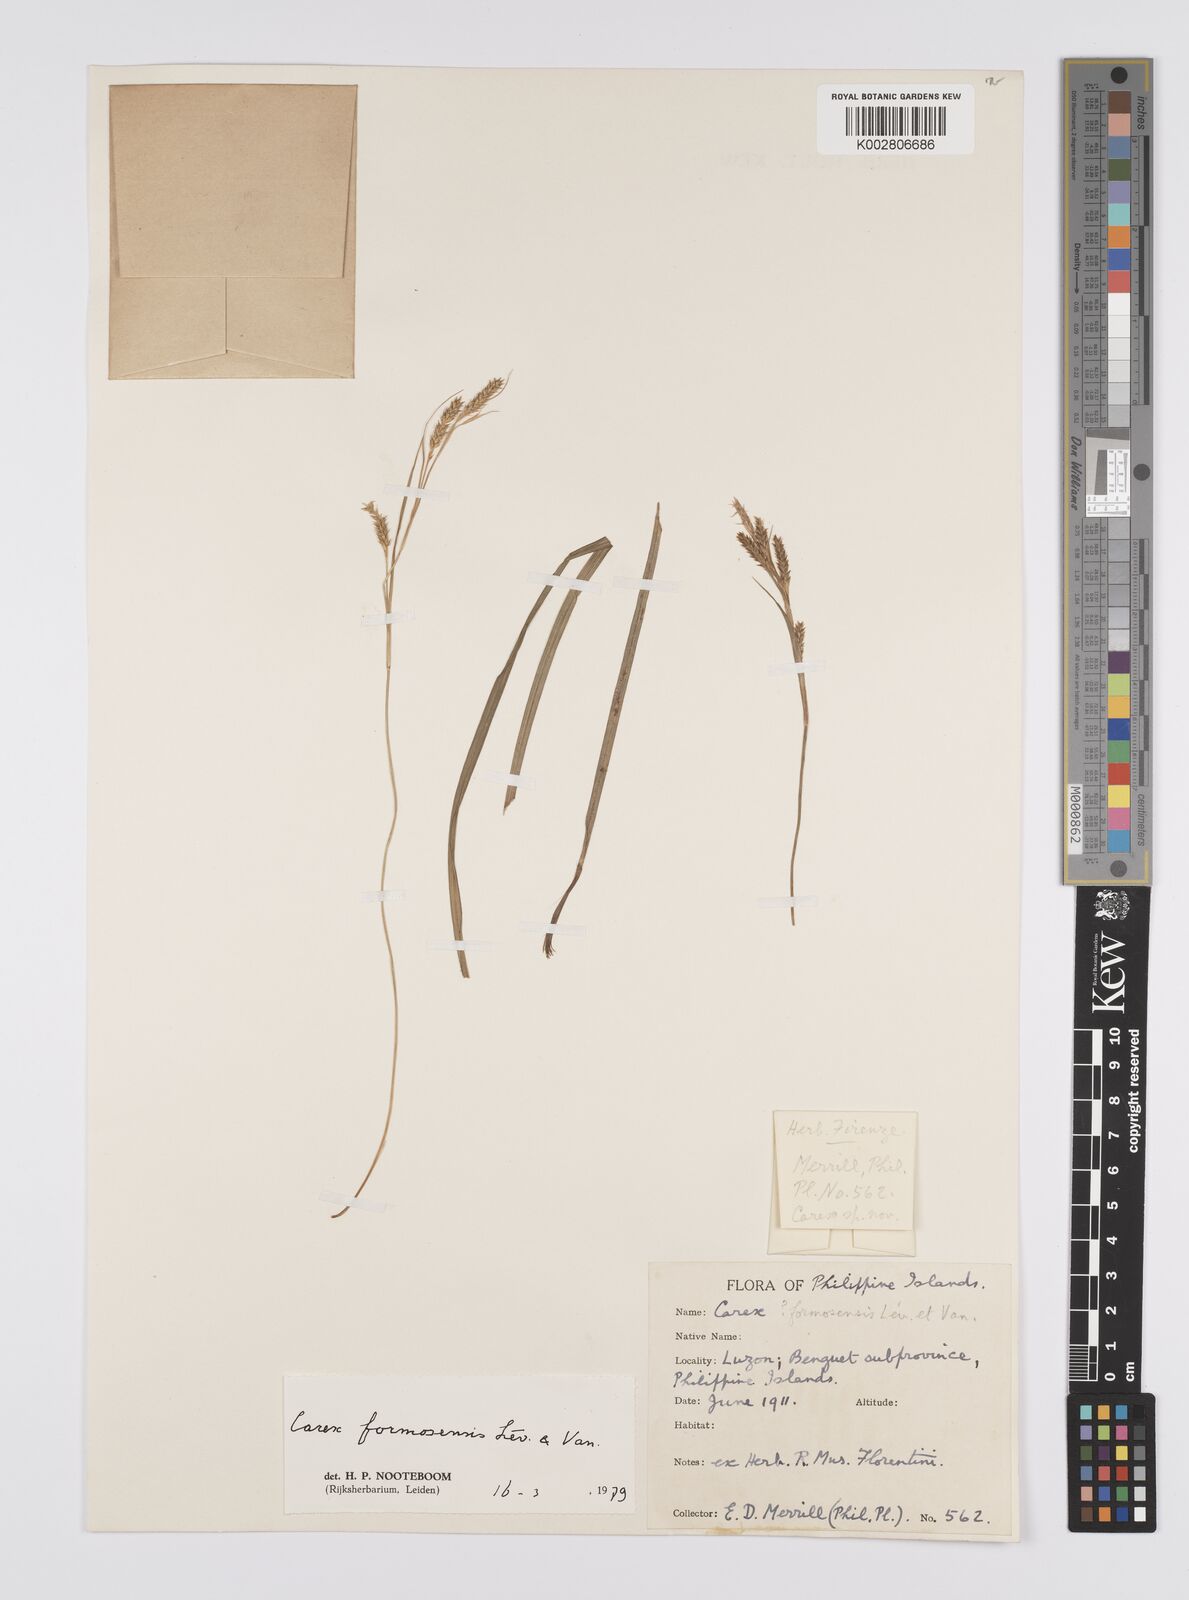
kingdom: Plantae
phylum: Tracheophyta
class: Liliopsida
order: Poales
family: Cyperaceae
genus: Carex
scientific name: Carex ascotreta
